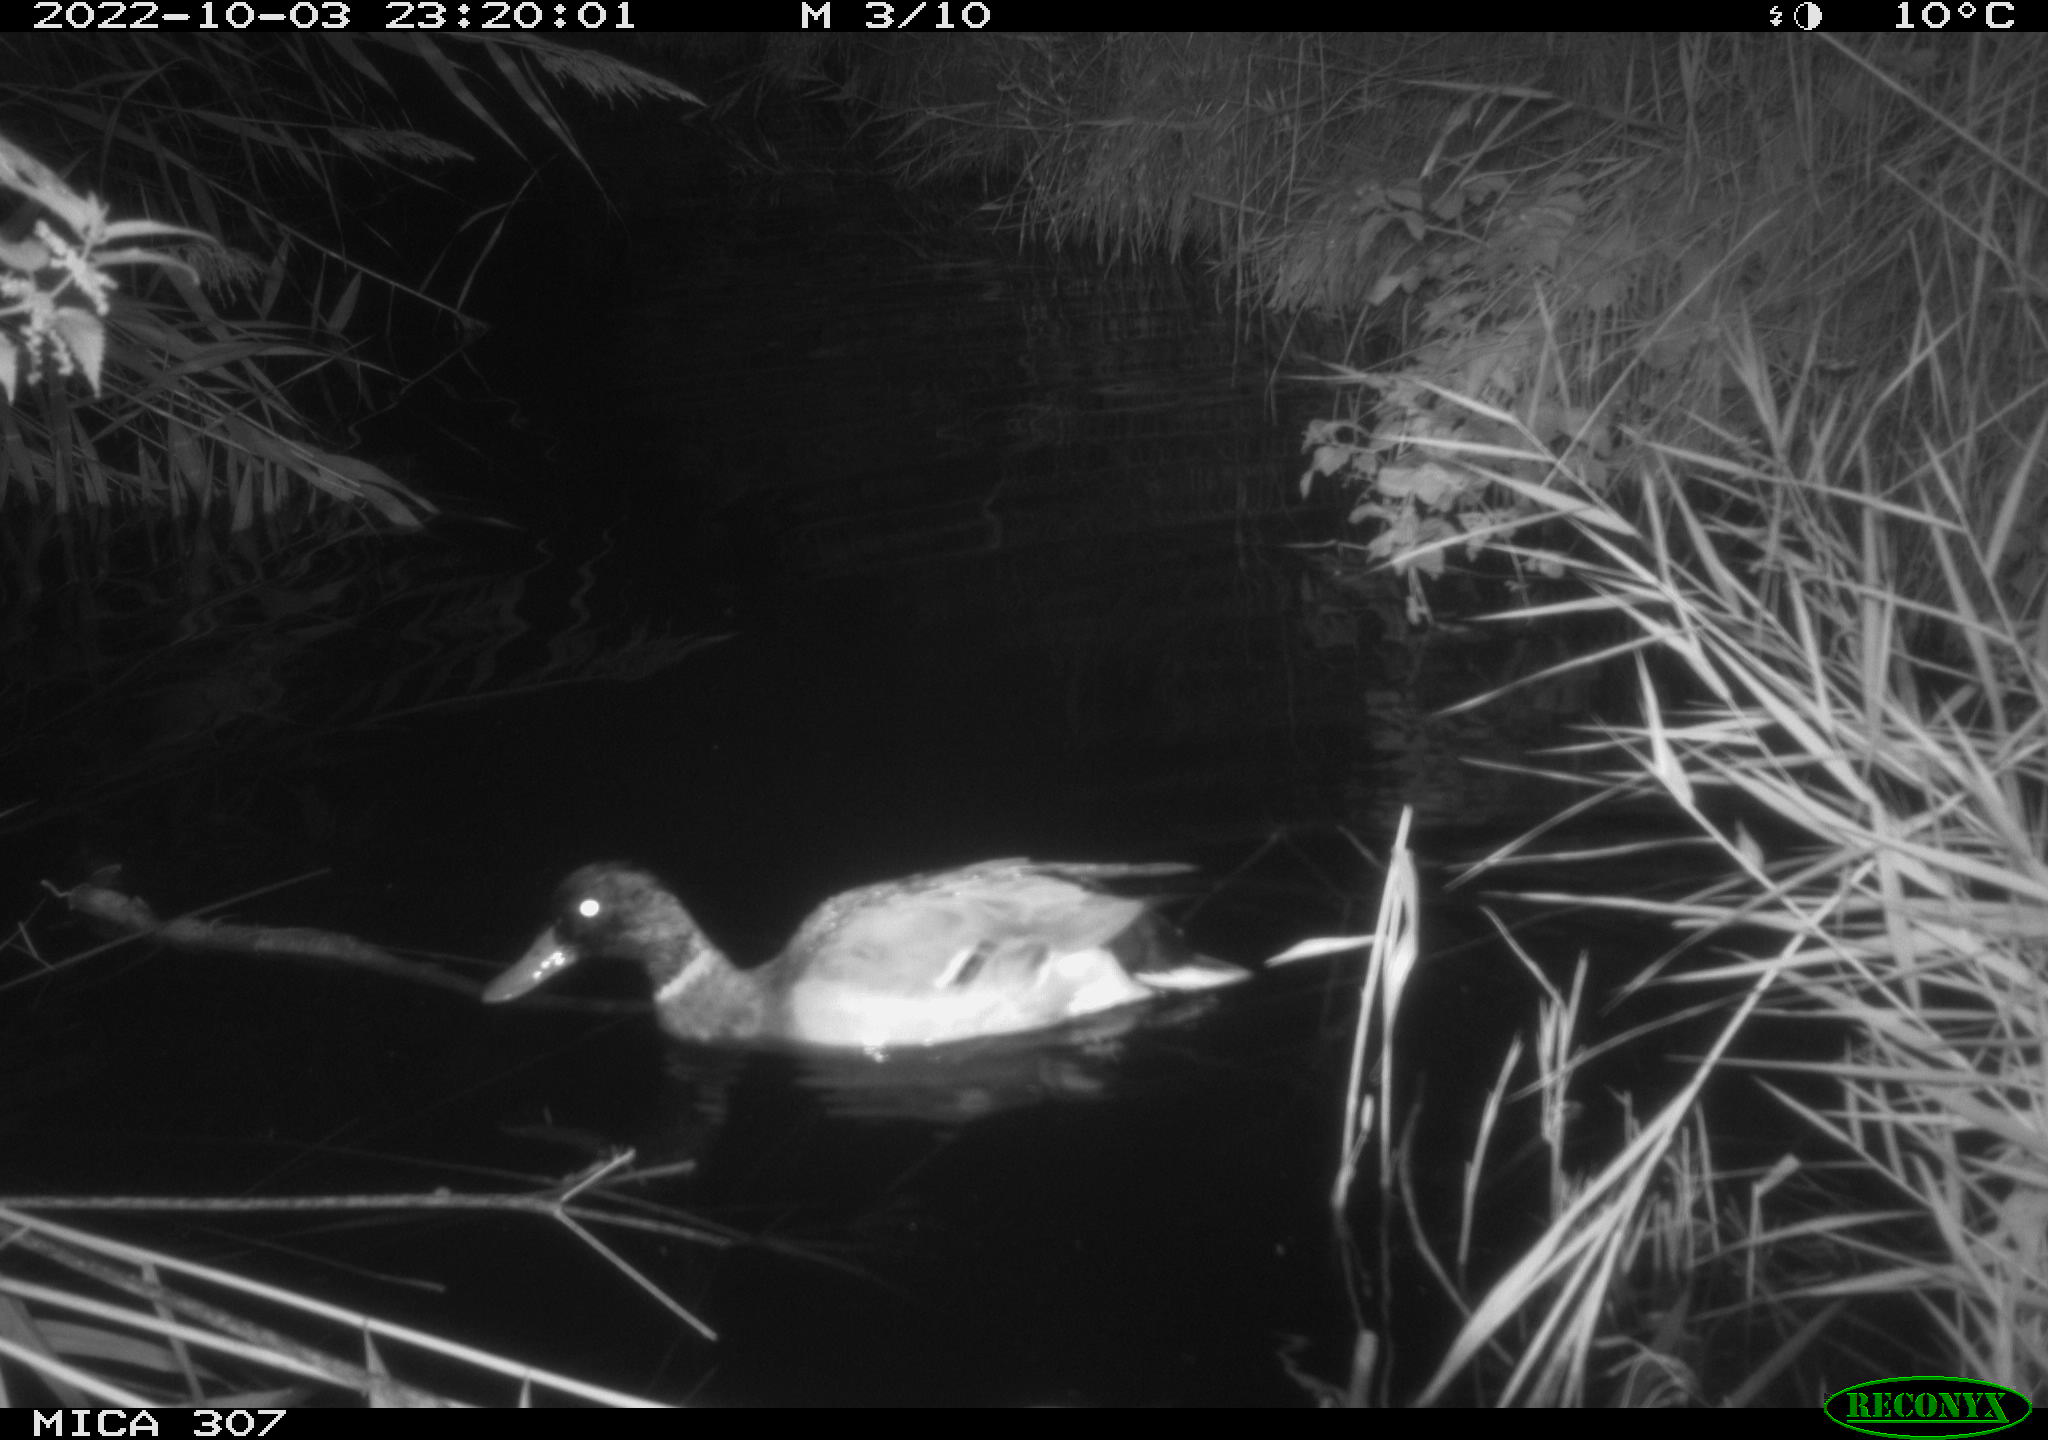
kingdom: Animalia
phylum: Chordata
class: Aves
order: Anseriformes
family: Anatidae
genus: Anas
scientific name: Anas
